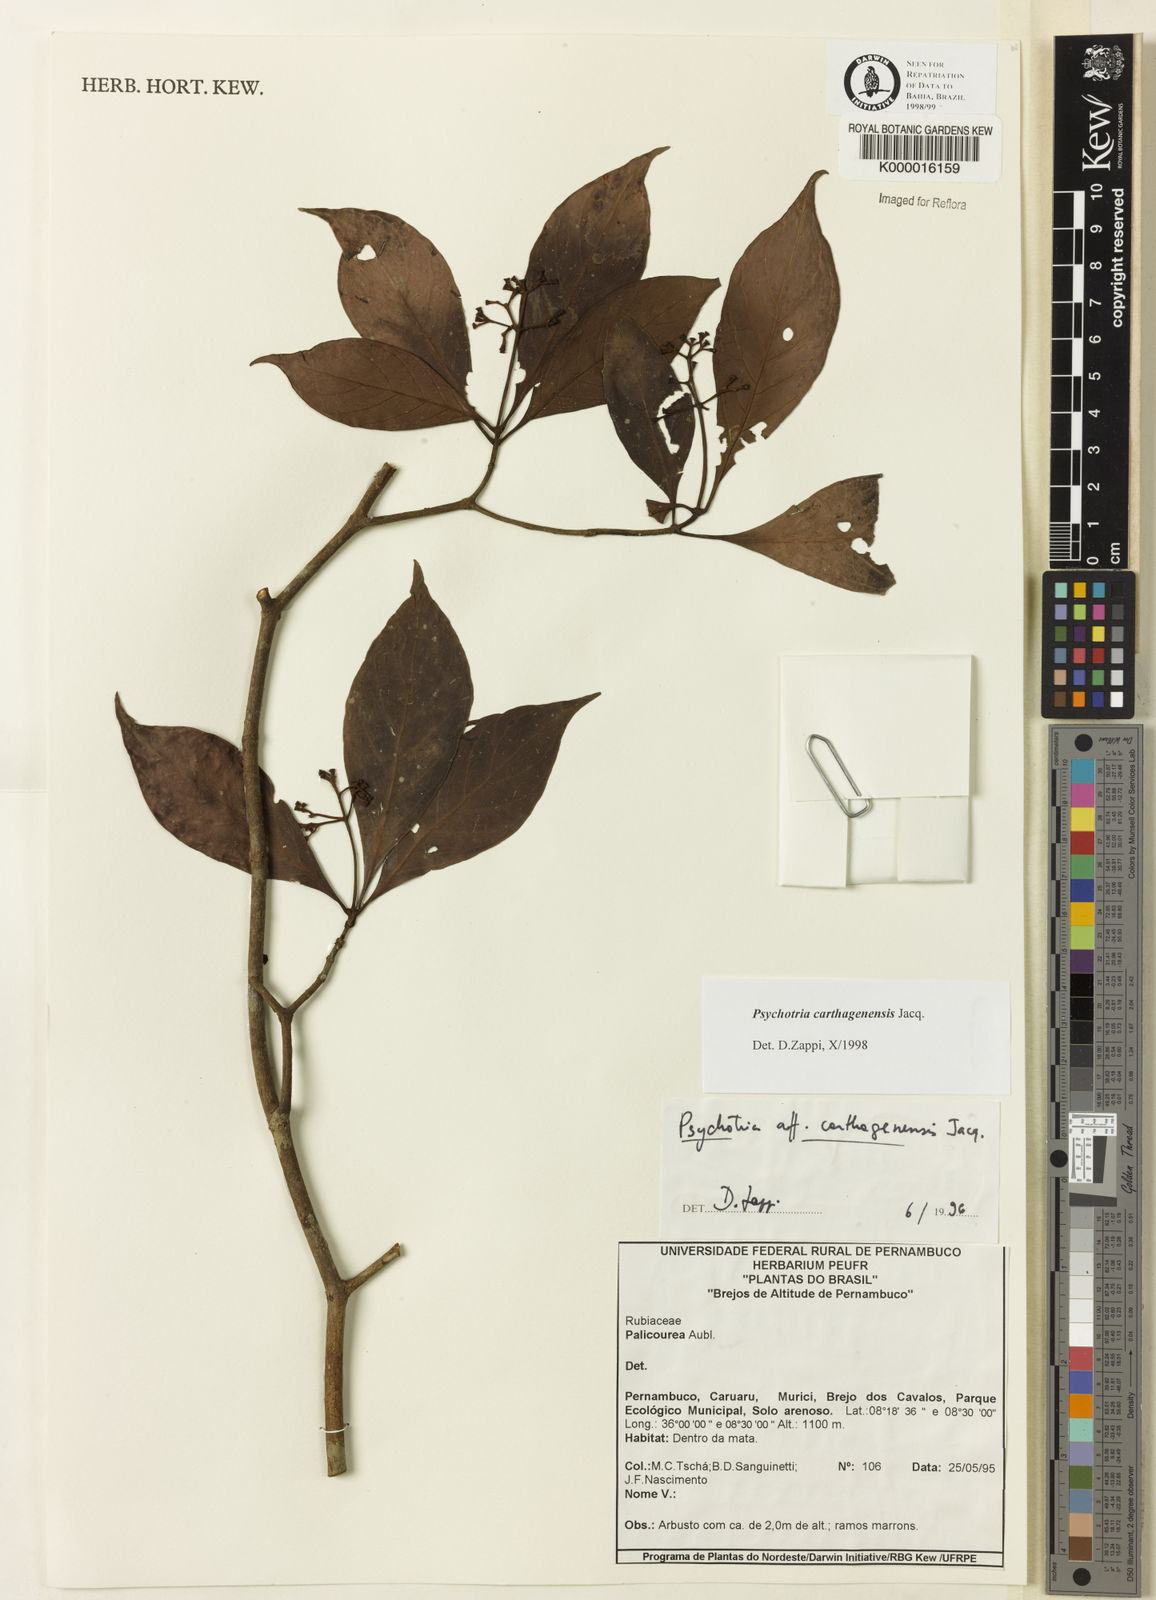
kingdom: Plantae
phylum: Tracheophyta
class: Magnoliopsida
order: Gentianales
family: Rubiaceae
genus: Psychotria
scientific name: Psychotria carthagenensis
